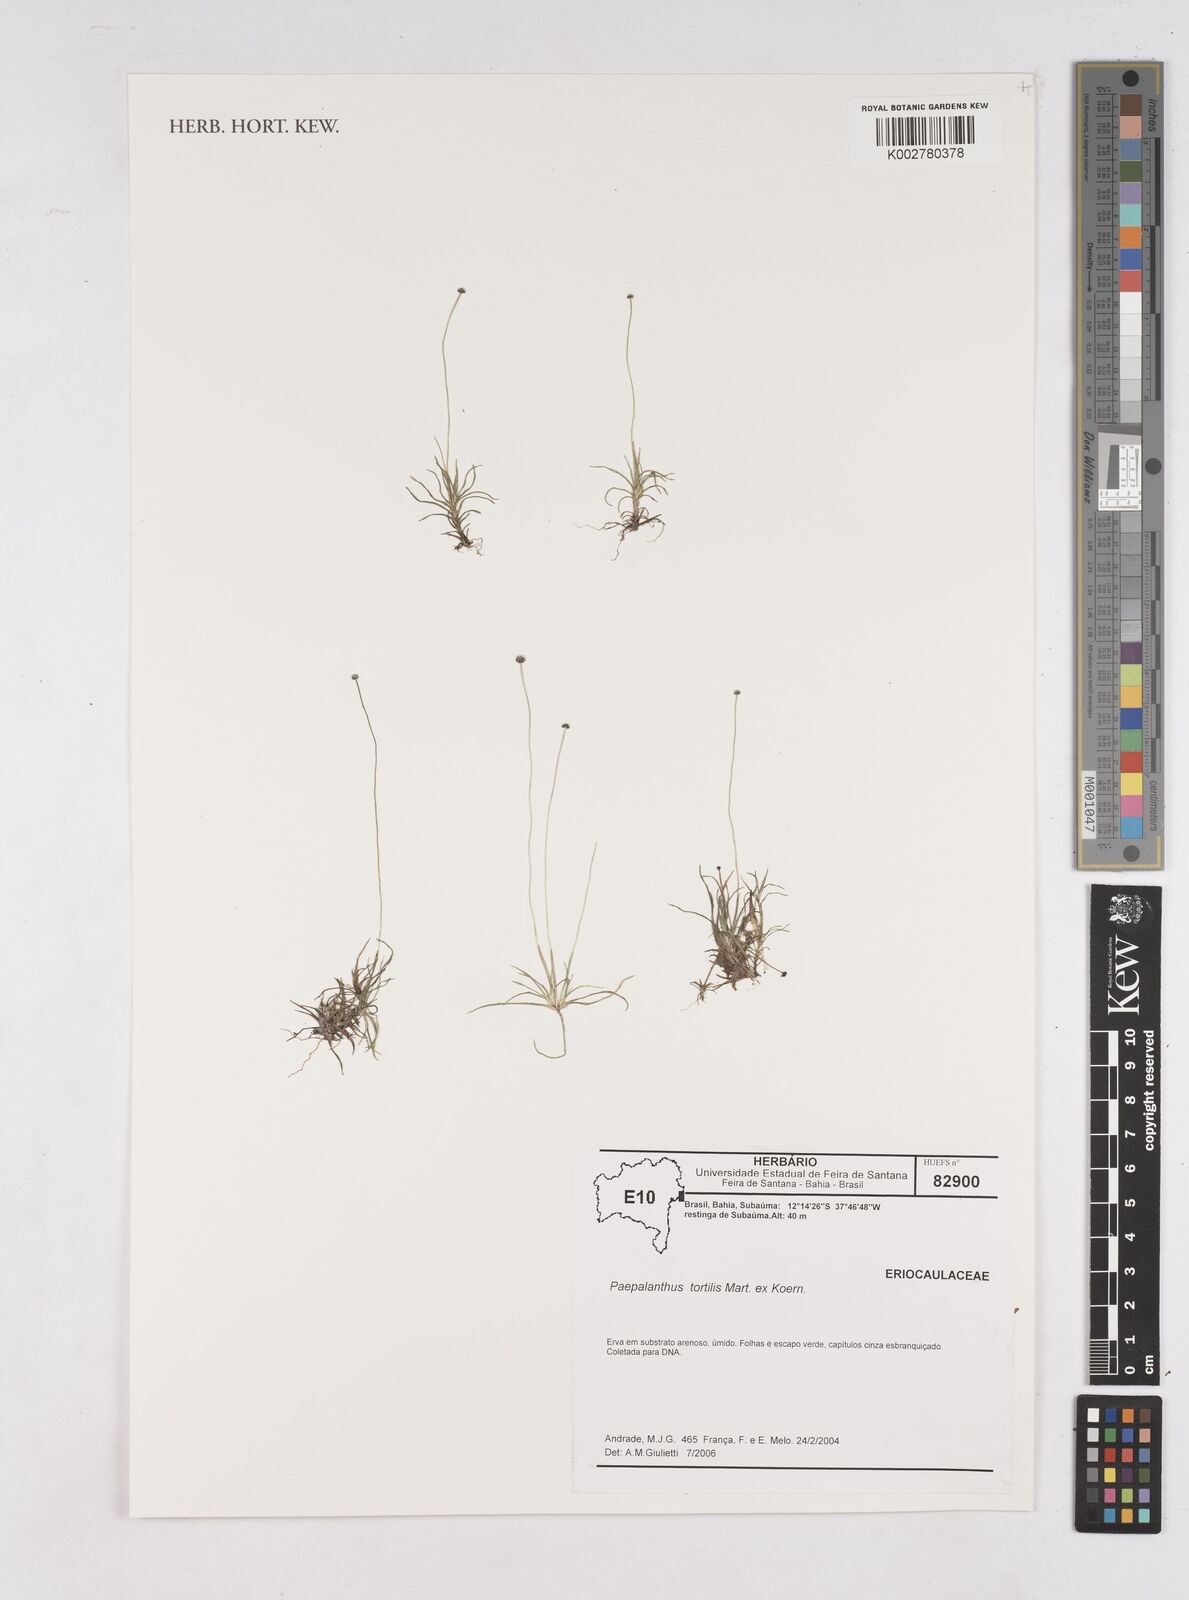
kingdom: Plantae
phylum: Tracheophyta
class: Liliopsida
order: Poales
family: Eriocaulaceae
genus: Paepalanthus
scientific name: Paepalanthus tortilis
